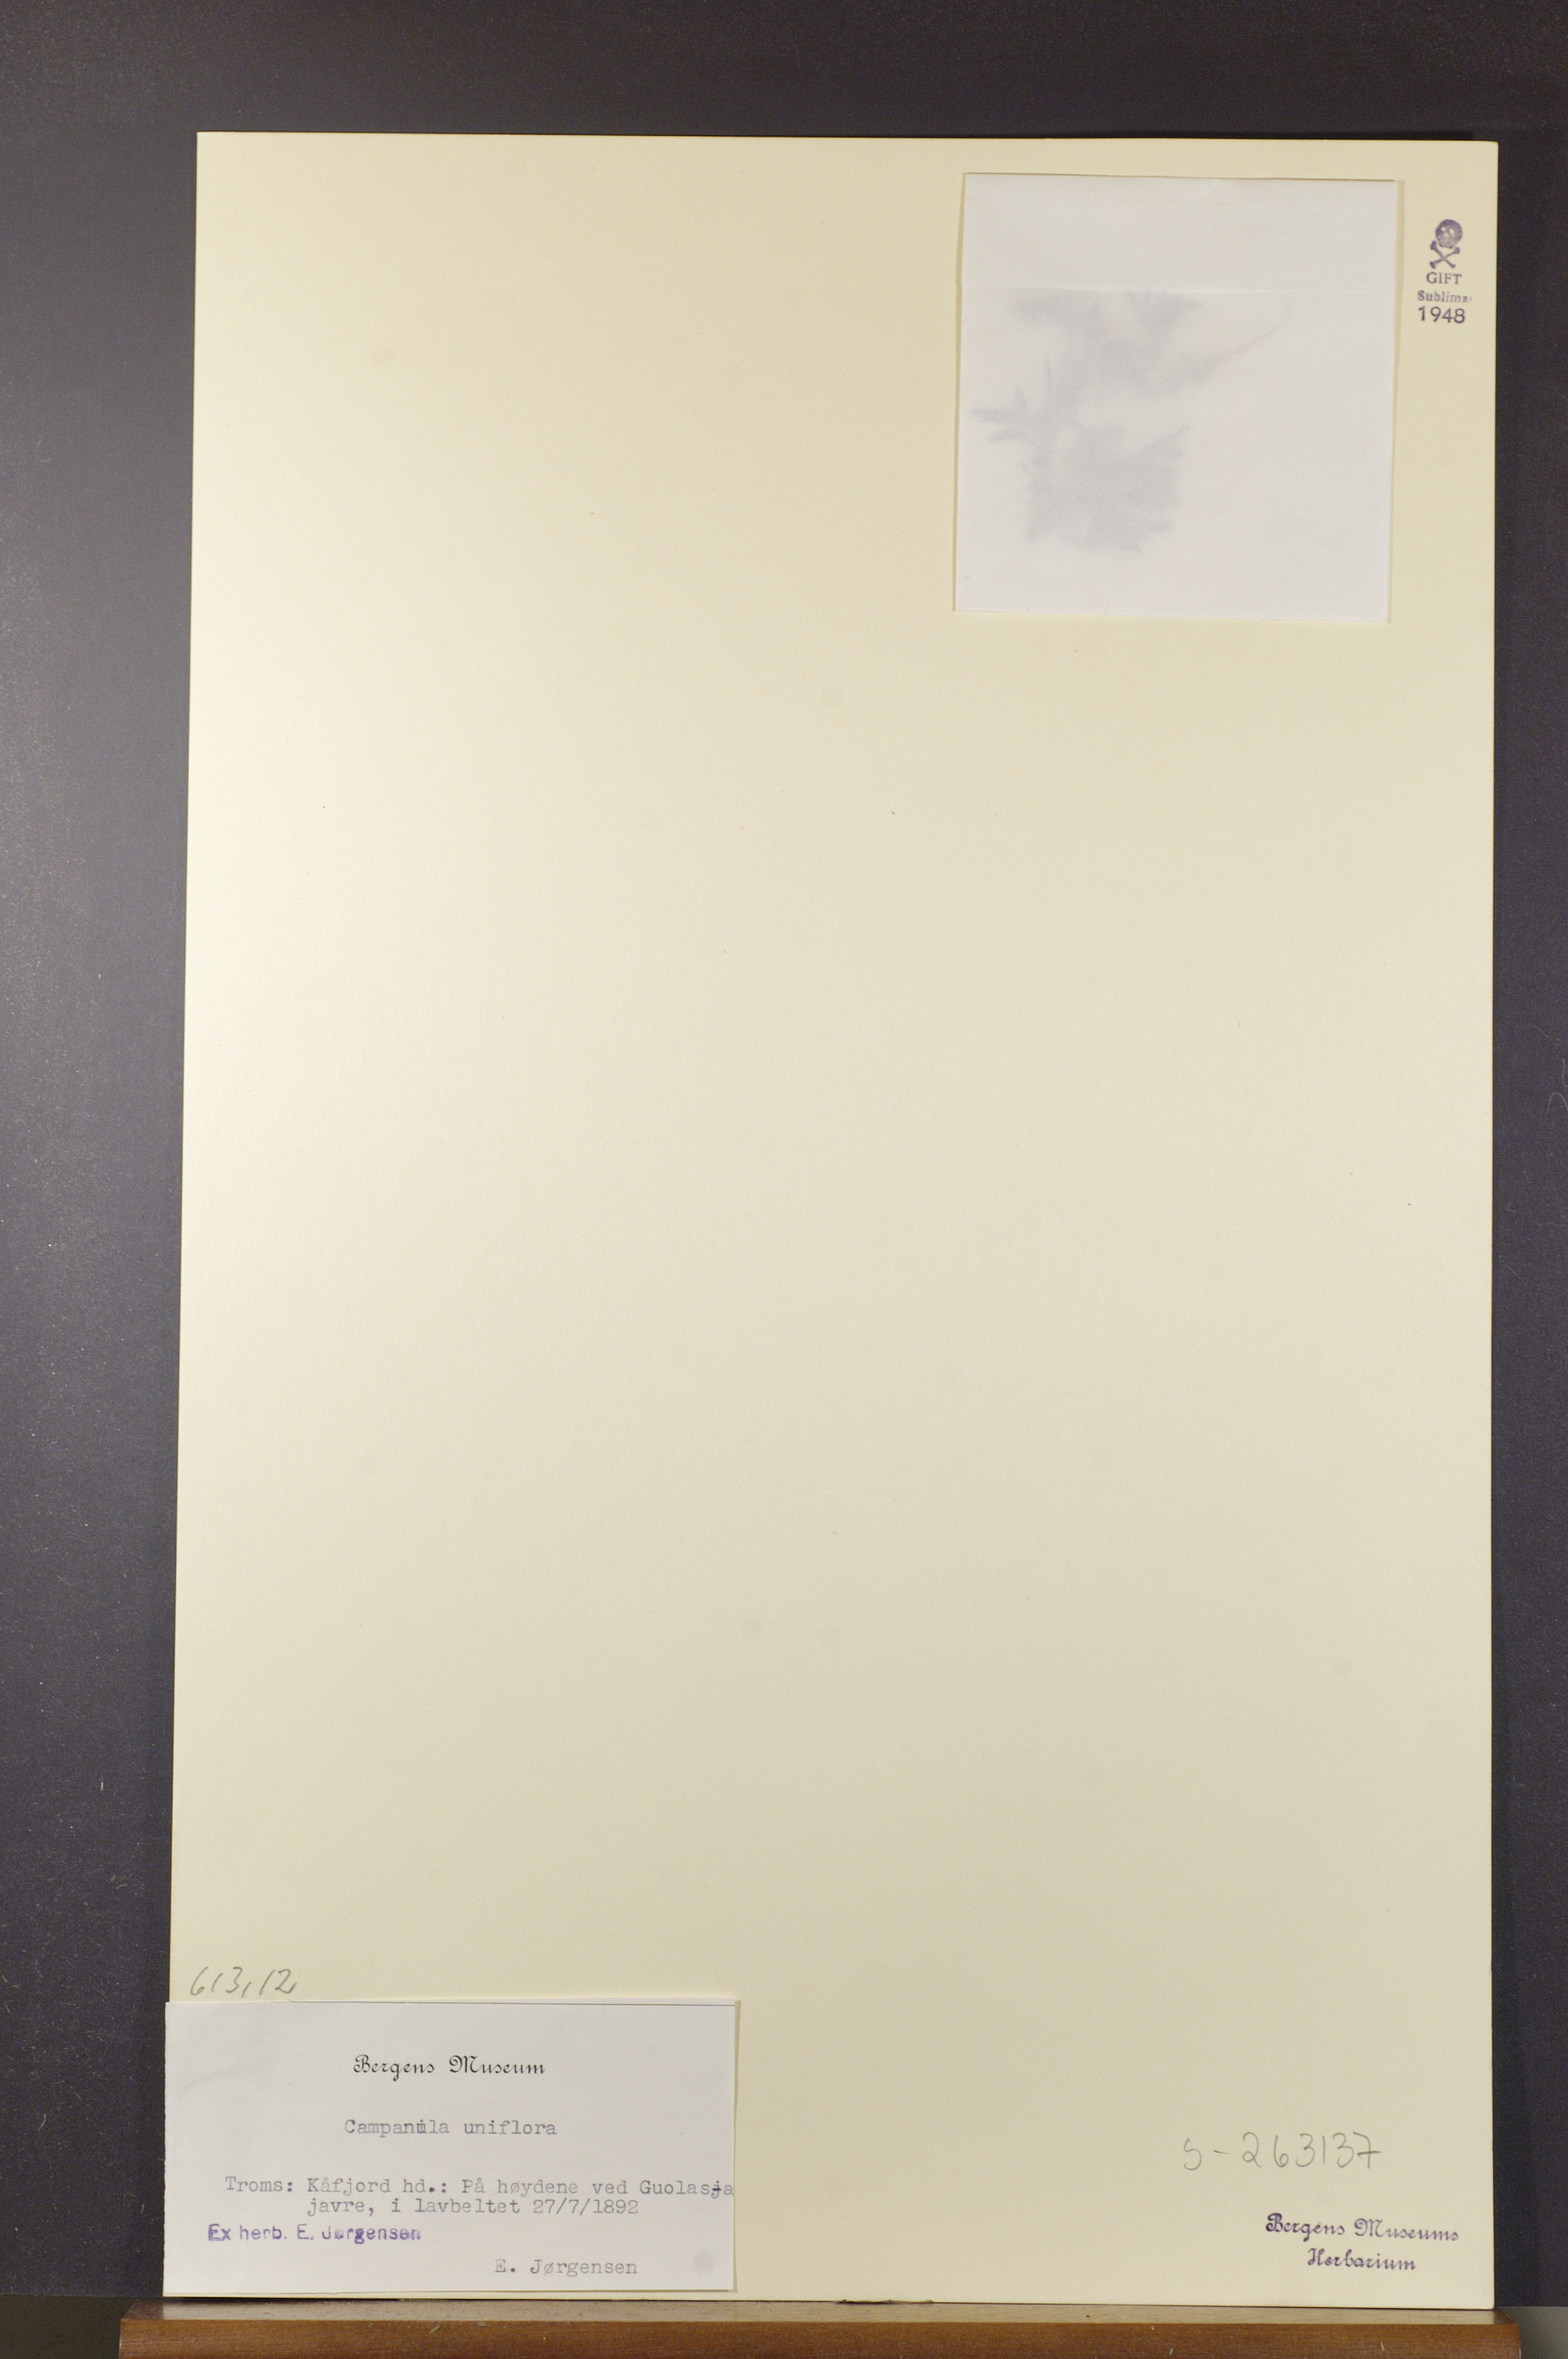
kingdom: Plantae
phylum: Tracheophyta
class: Magnoliopsida
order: Asterales
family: Campanulaceae
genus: Melanocalyx
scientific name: Melanocalyx uniflora
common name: Alpine harebell
